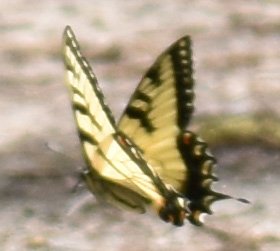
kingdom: Animalia
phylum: Arthropoda
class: Insecta
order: Lepidoptera
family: Papilionidae
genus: Pterourus
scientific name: Pterourus glaucus
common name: Eastern Tiger Swallowtail
